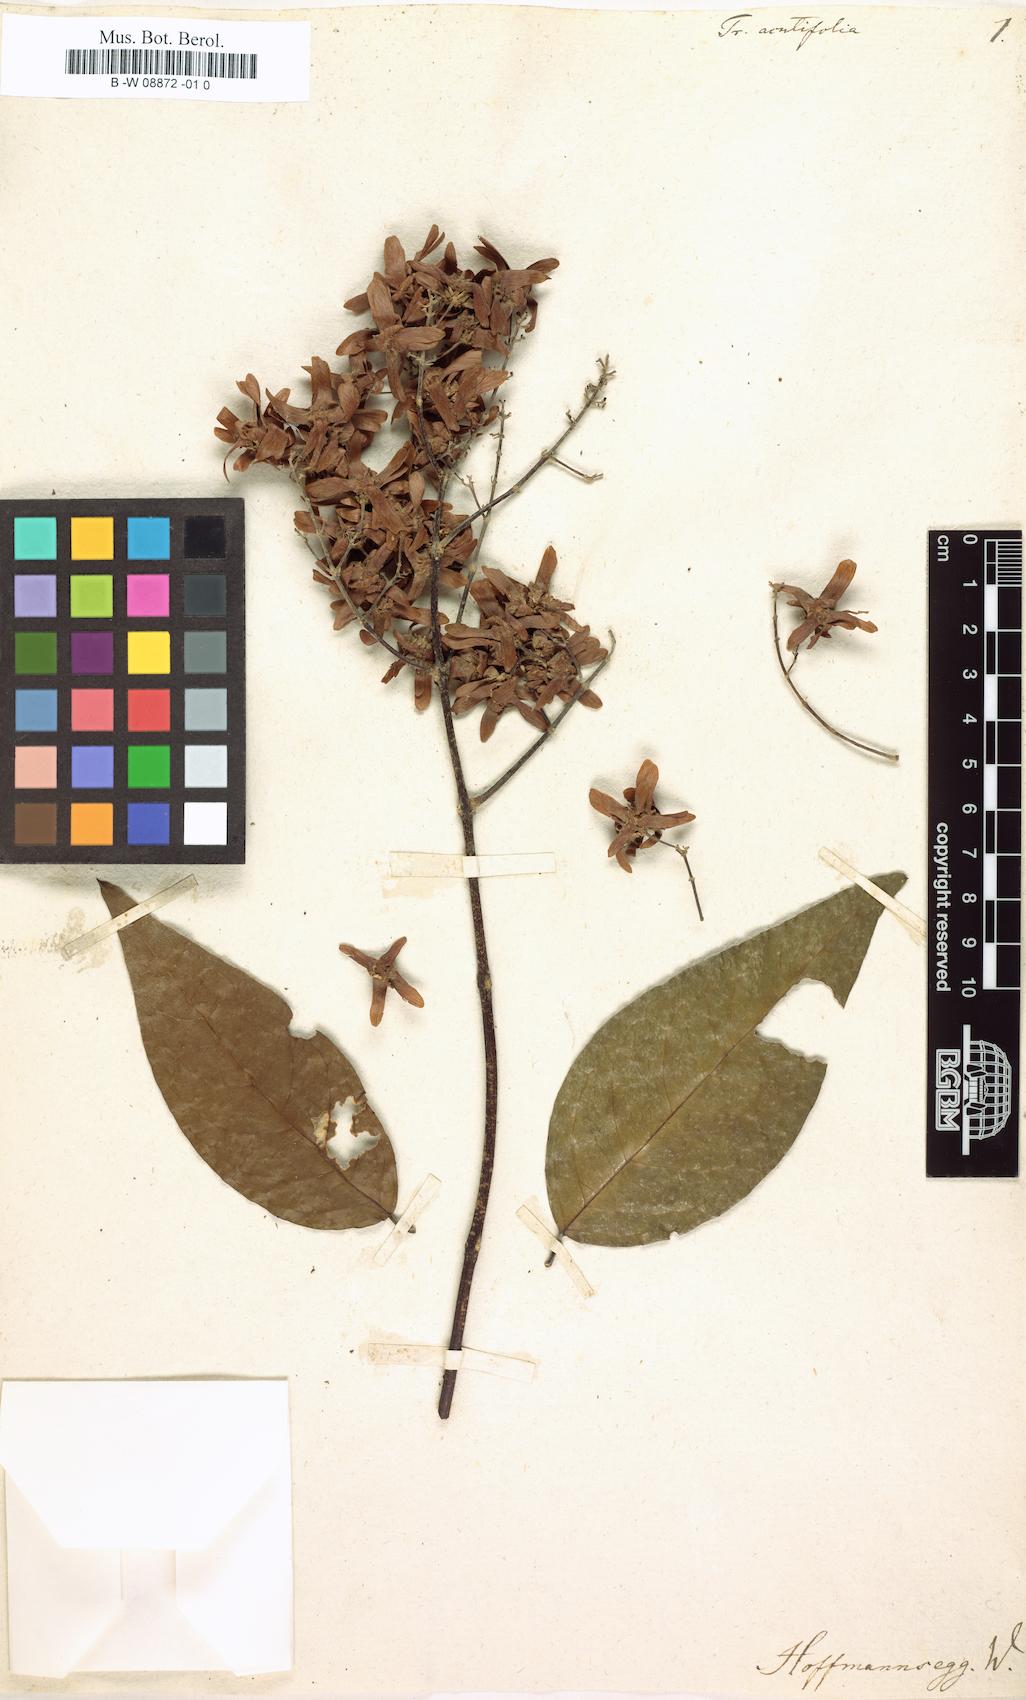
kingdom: Plantae
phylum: Tracheophyta
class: Magnoliopsida
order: Malpighiales
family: Malpighiaceae
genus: Niedenzuella
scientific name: Niedenzuella acutifolia
